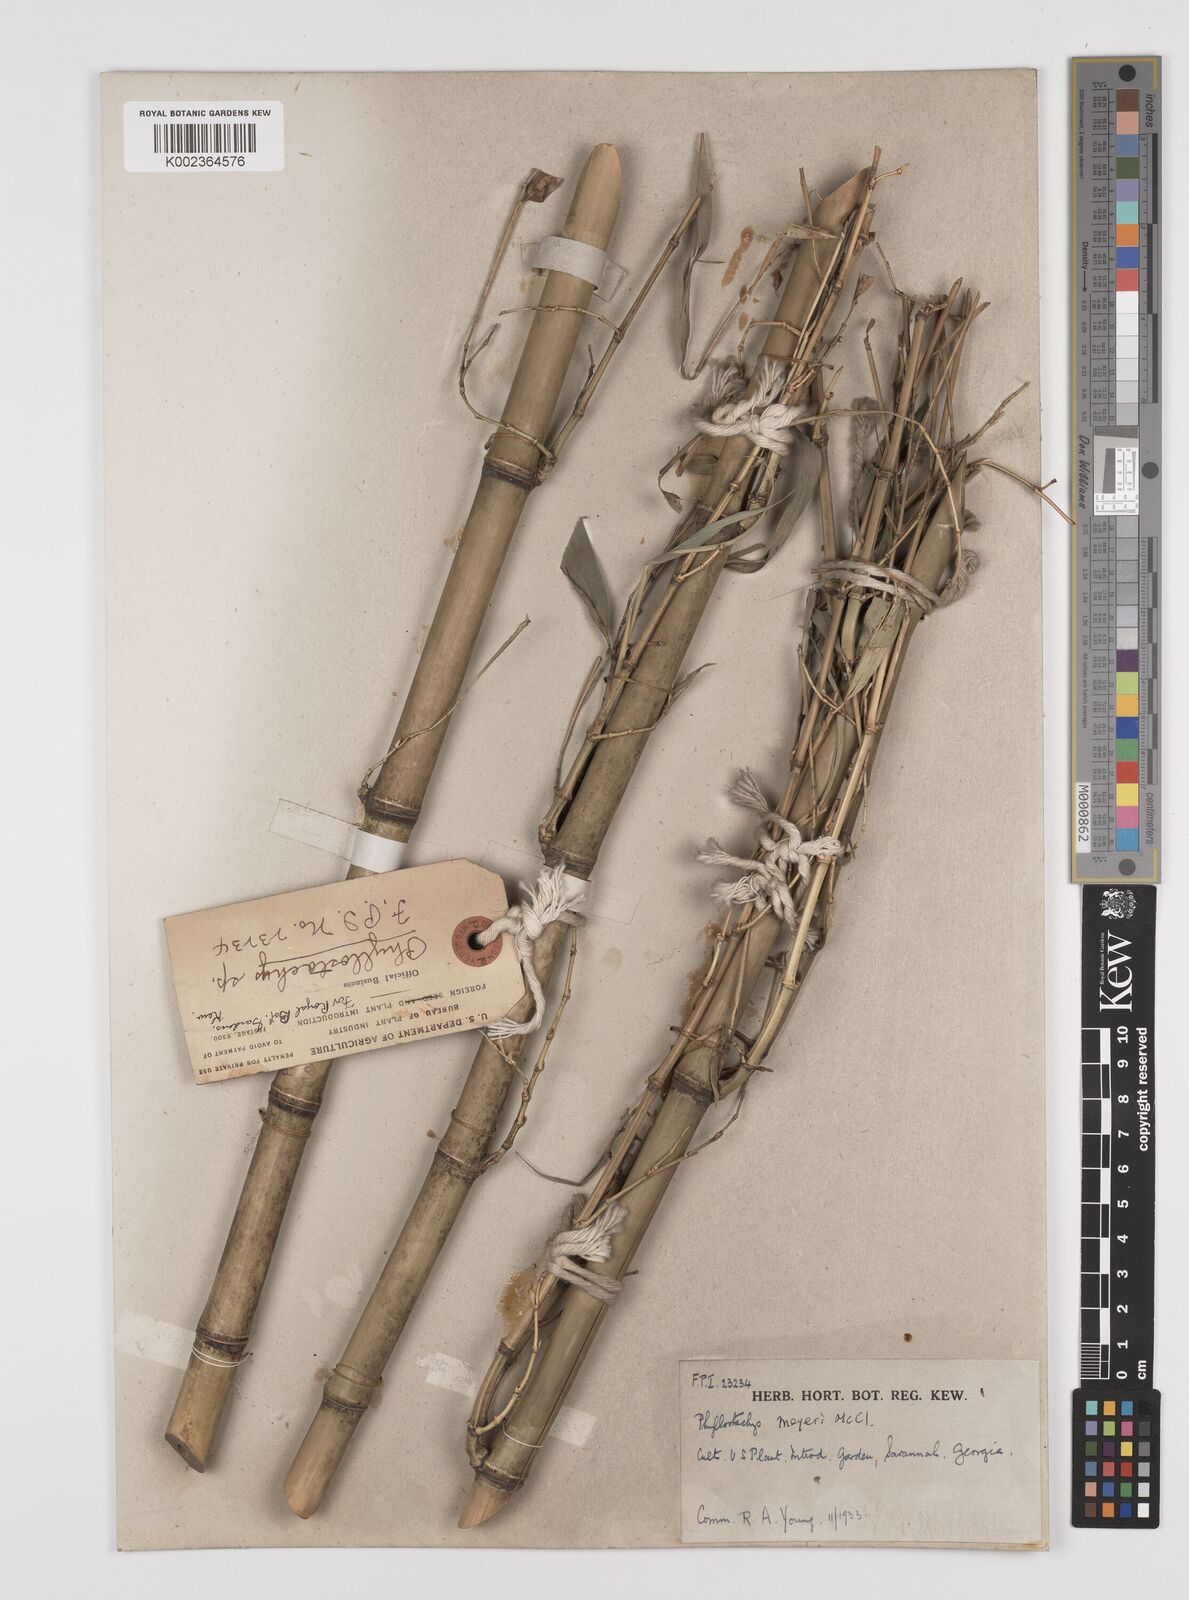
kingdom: Plantae
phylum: Tracheophyta
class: Liliopsida
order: Poales
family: Poaceae
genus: Phyllostachys
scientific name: Phyllostachys meyeri
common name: Meyer's bamboo
